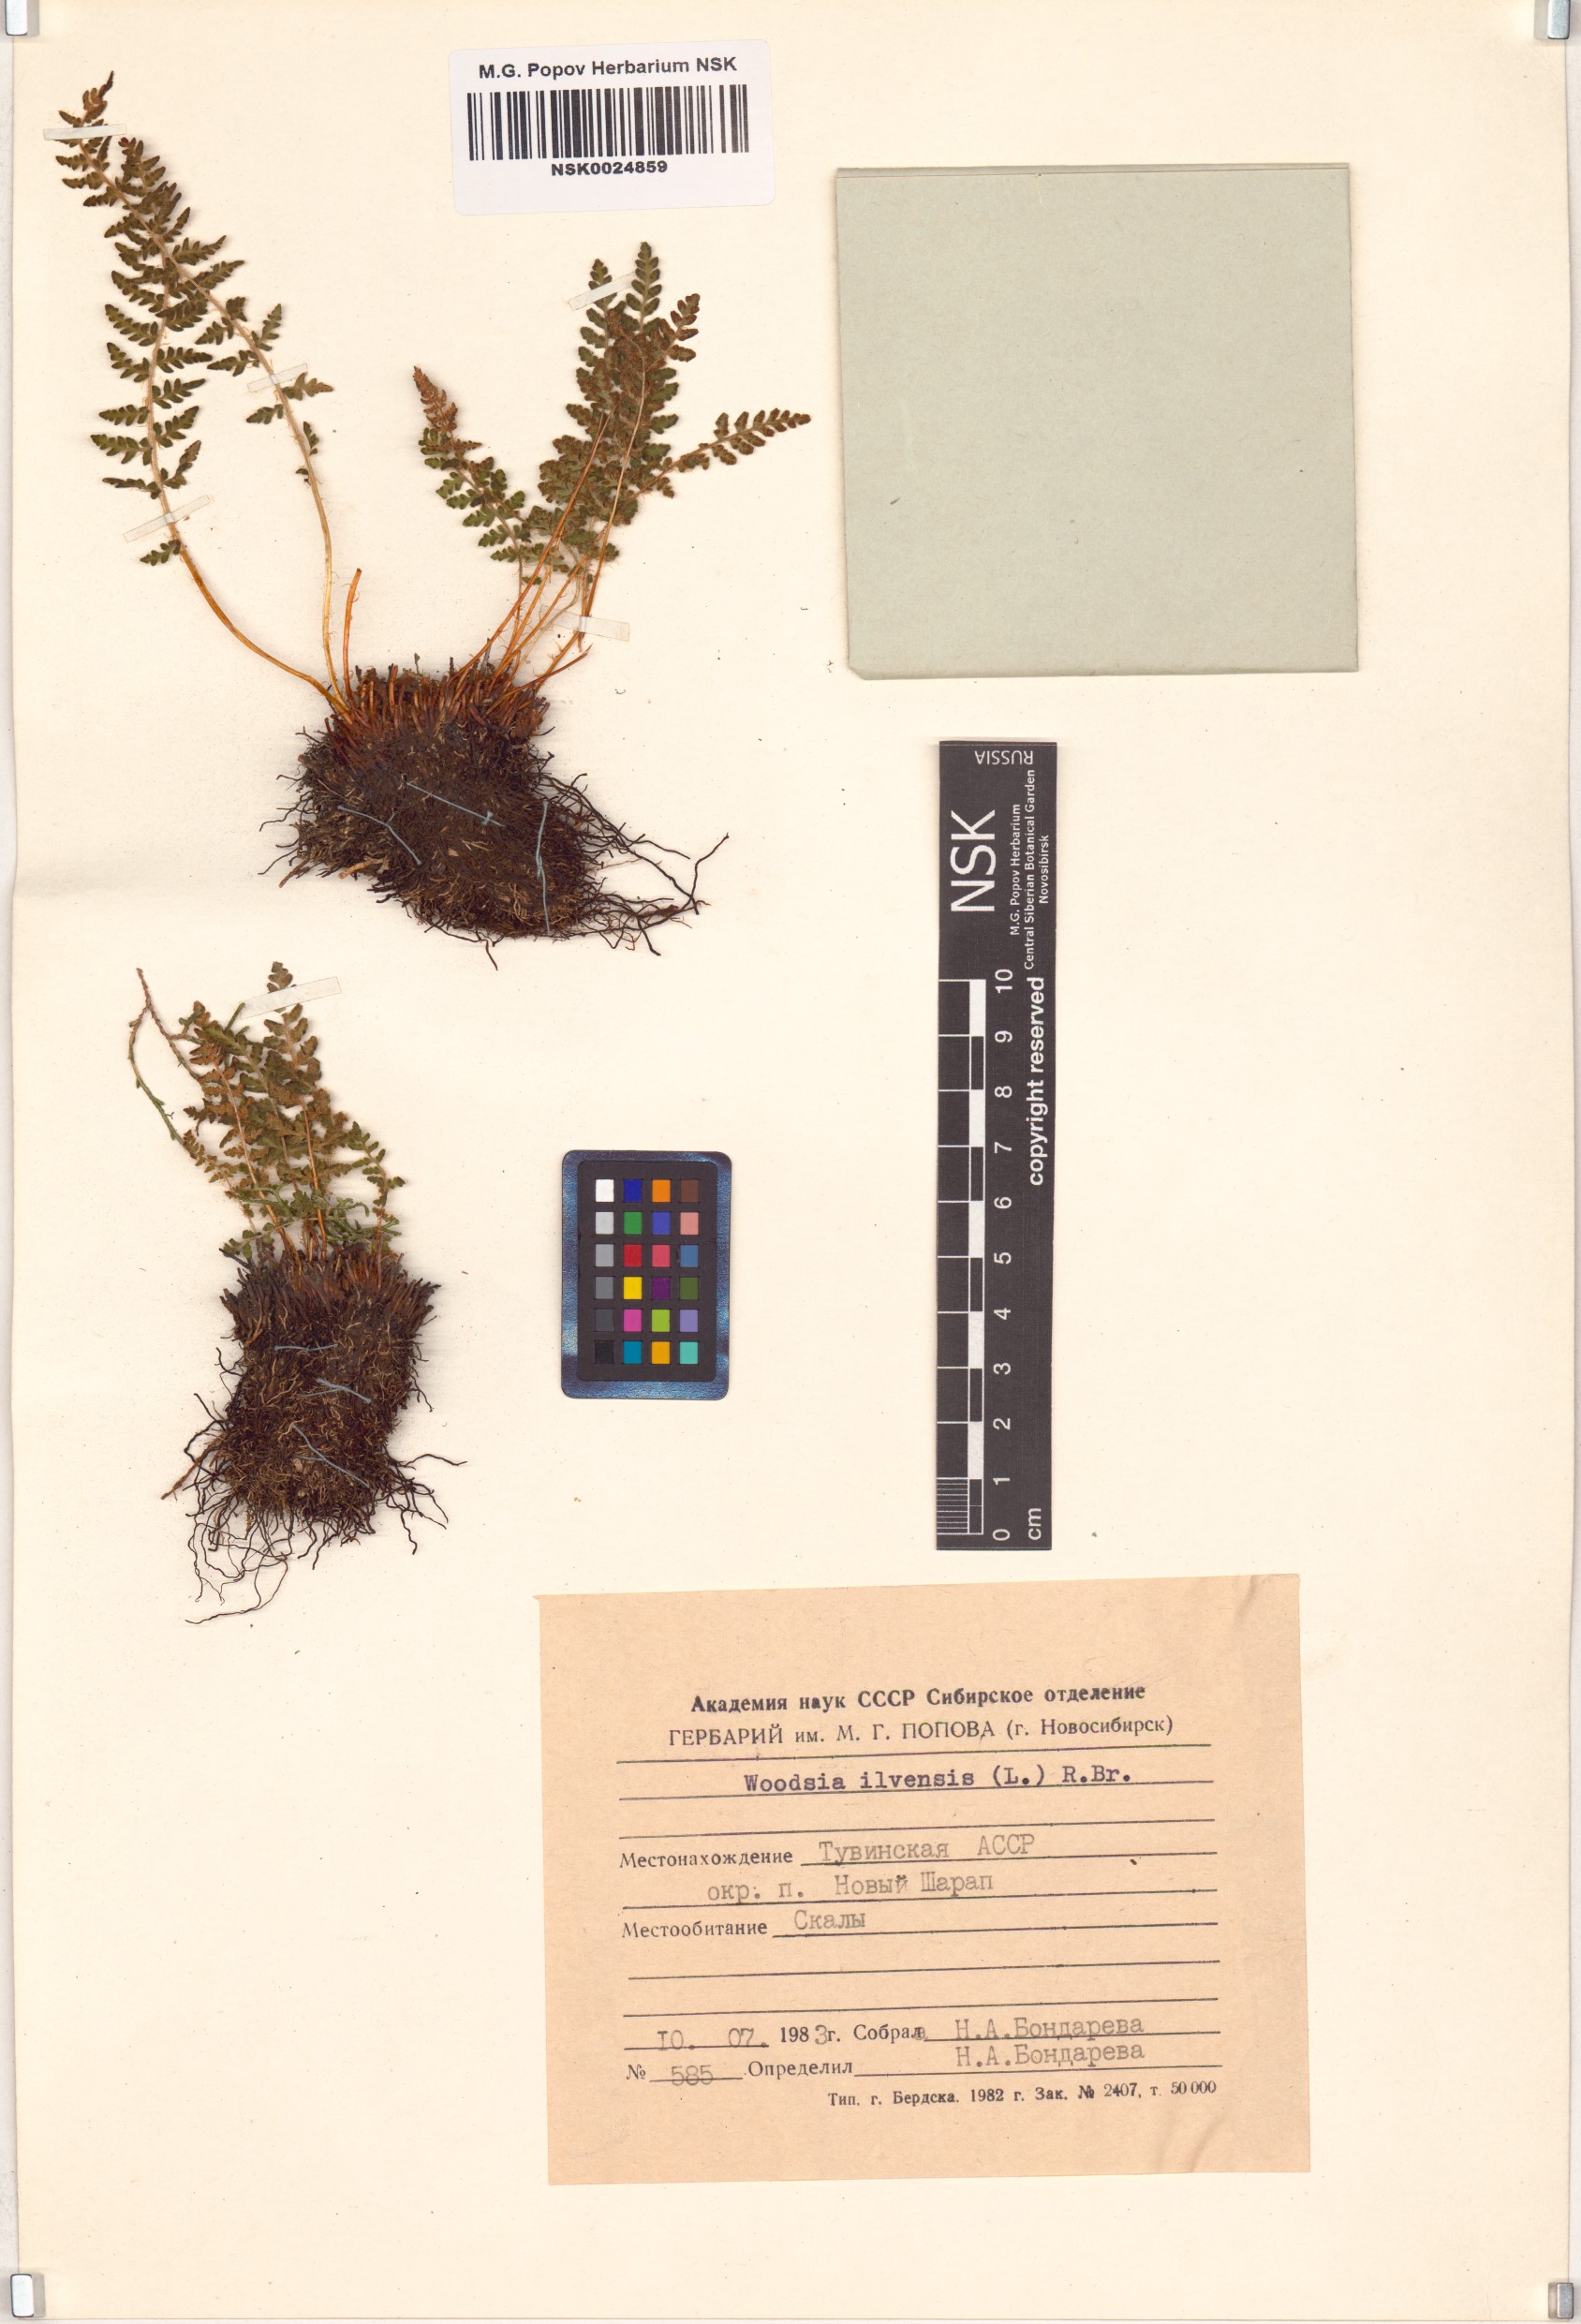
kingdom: Plantae
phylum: Tracheophyta
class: Polypodiopsida
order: Polypodiales
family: Woodsiaceae
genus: Woodsia
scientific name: Woodsia ilvensis
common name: Fragrant woodsia
